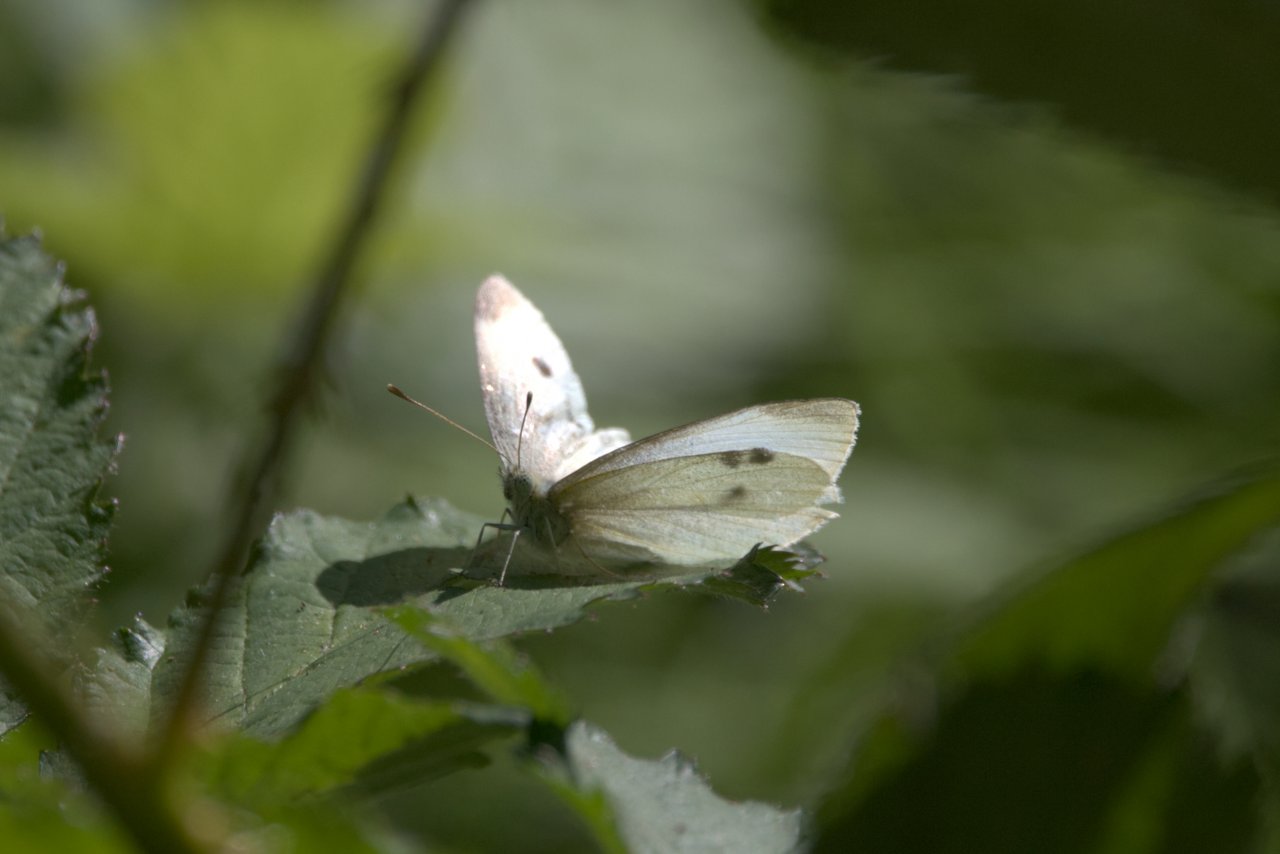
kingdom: Animalia
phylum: Arthropoda
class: Insecta
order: Lepidoptera
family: Pieridae
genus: Pieris
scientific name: Pieris rapae
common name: Cabbage White
